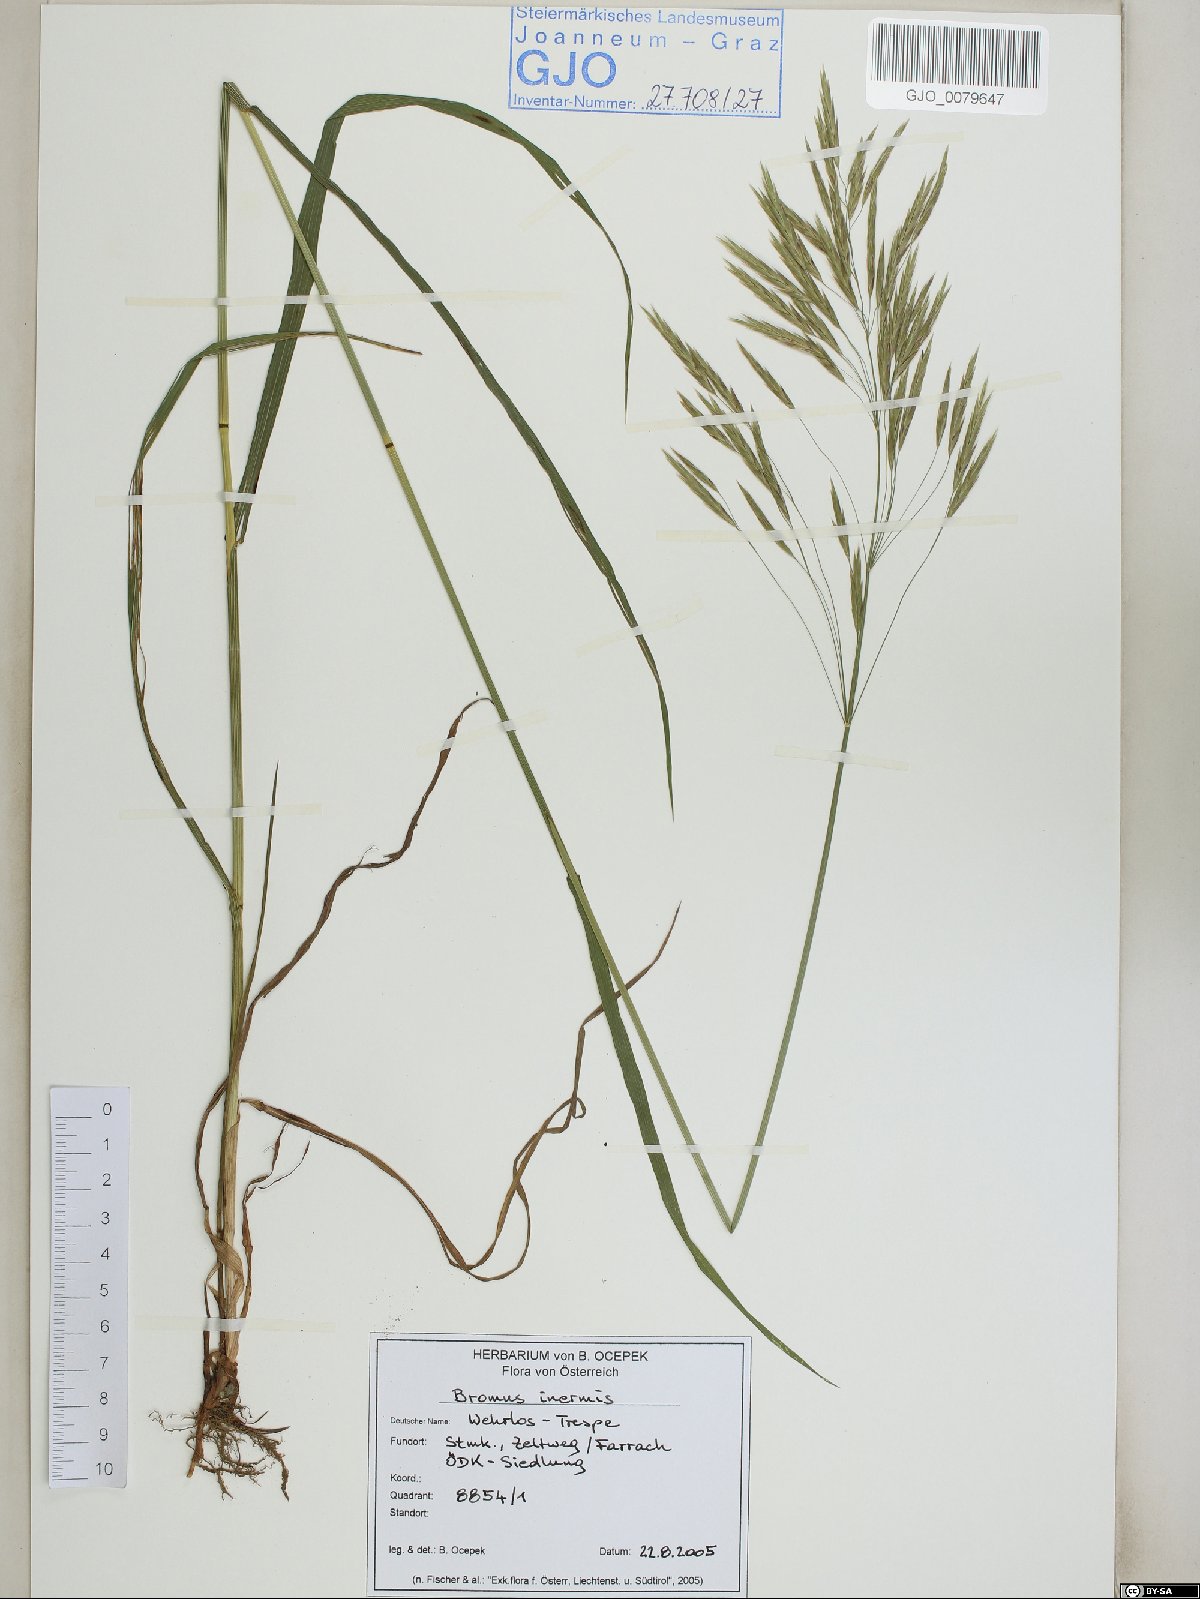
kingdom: Plantae
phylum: Tracheophyta
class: Liliopsida
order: Poales
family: Poaceae
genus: Bromus
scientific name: Bromus inermis
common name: Smooth brome
